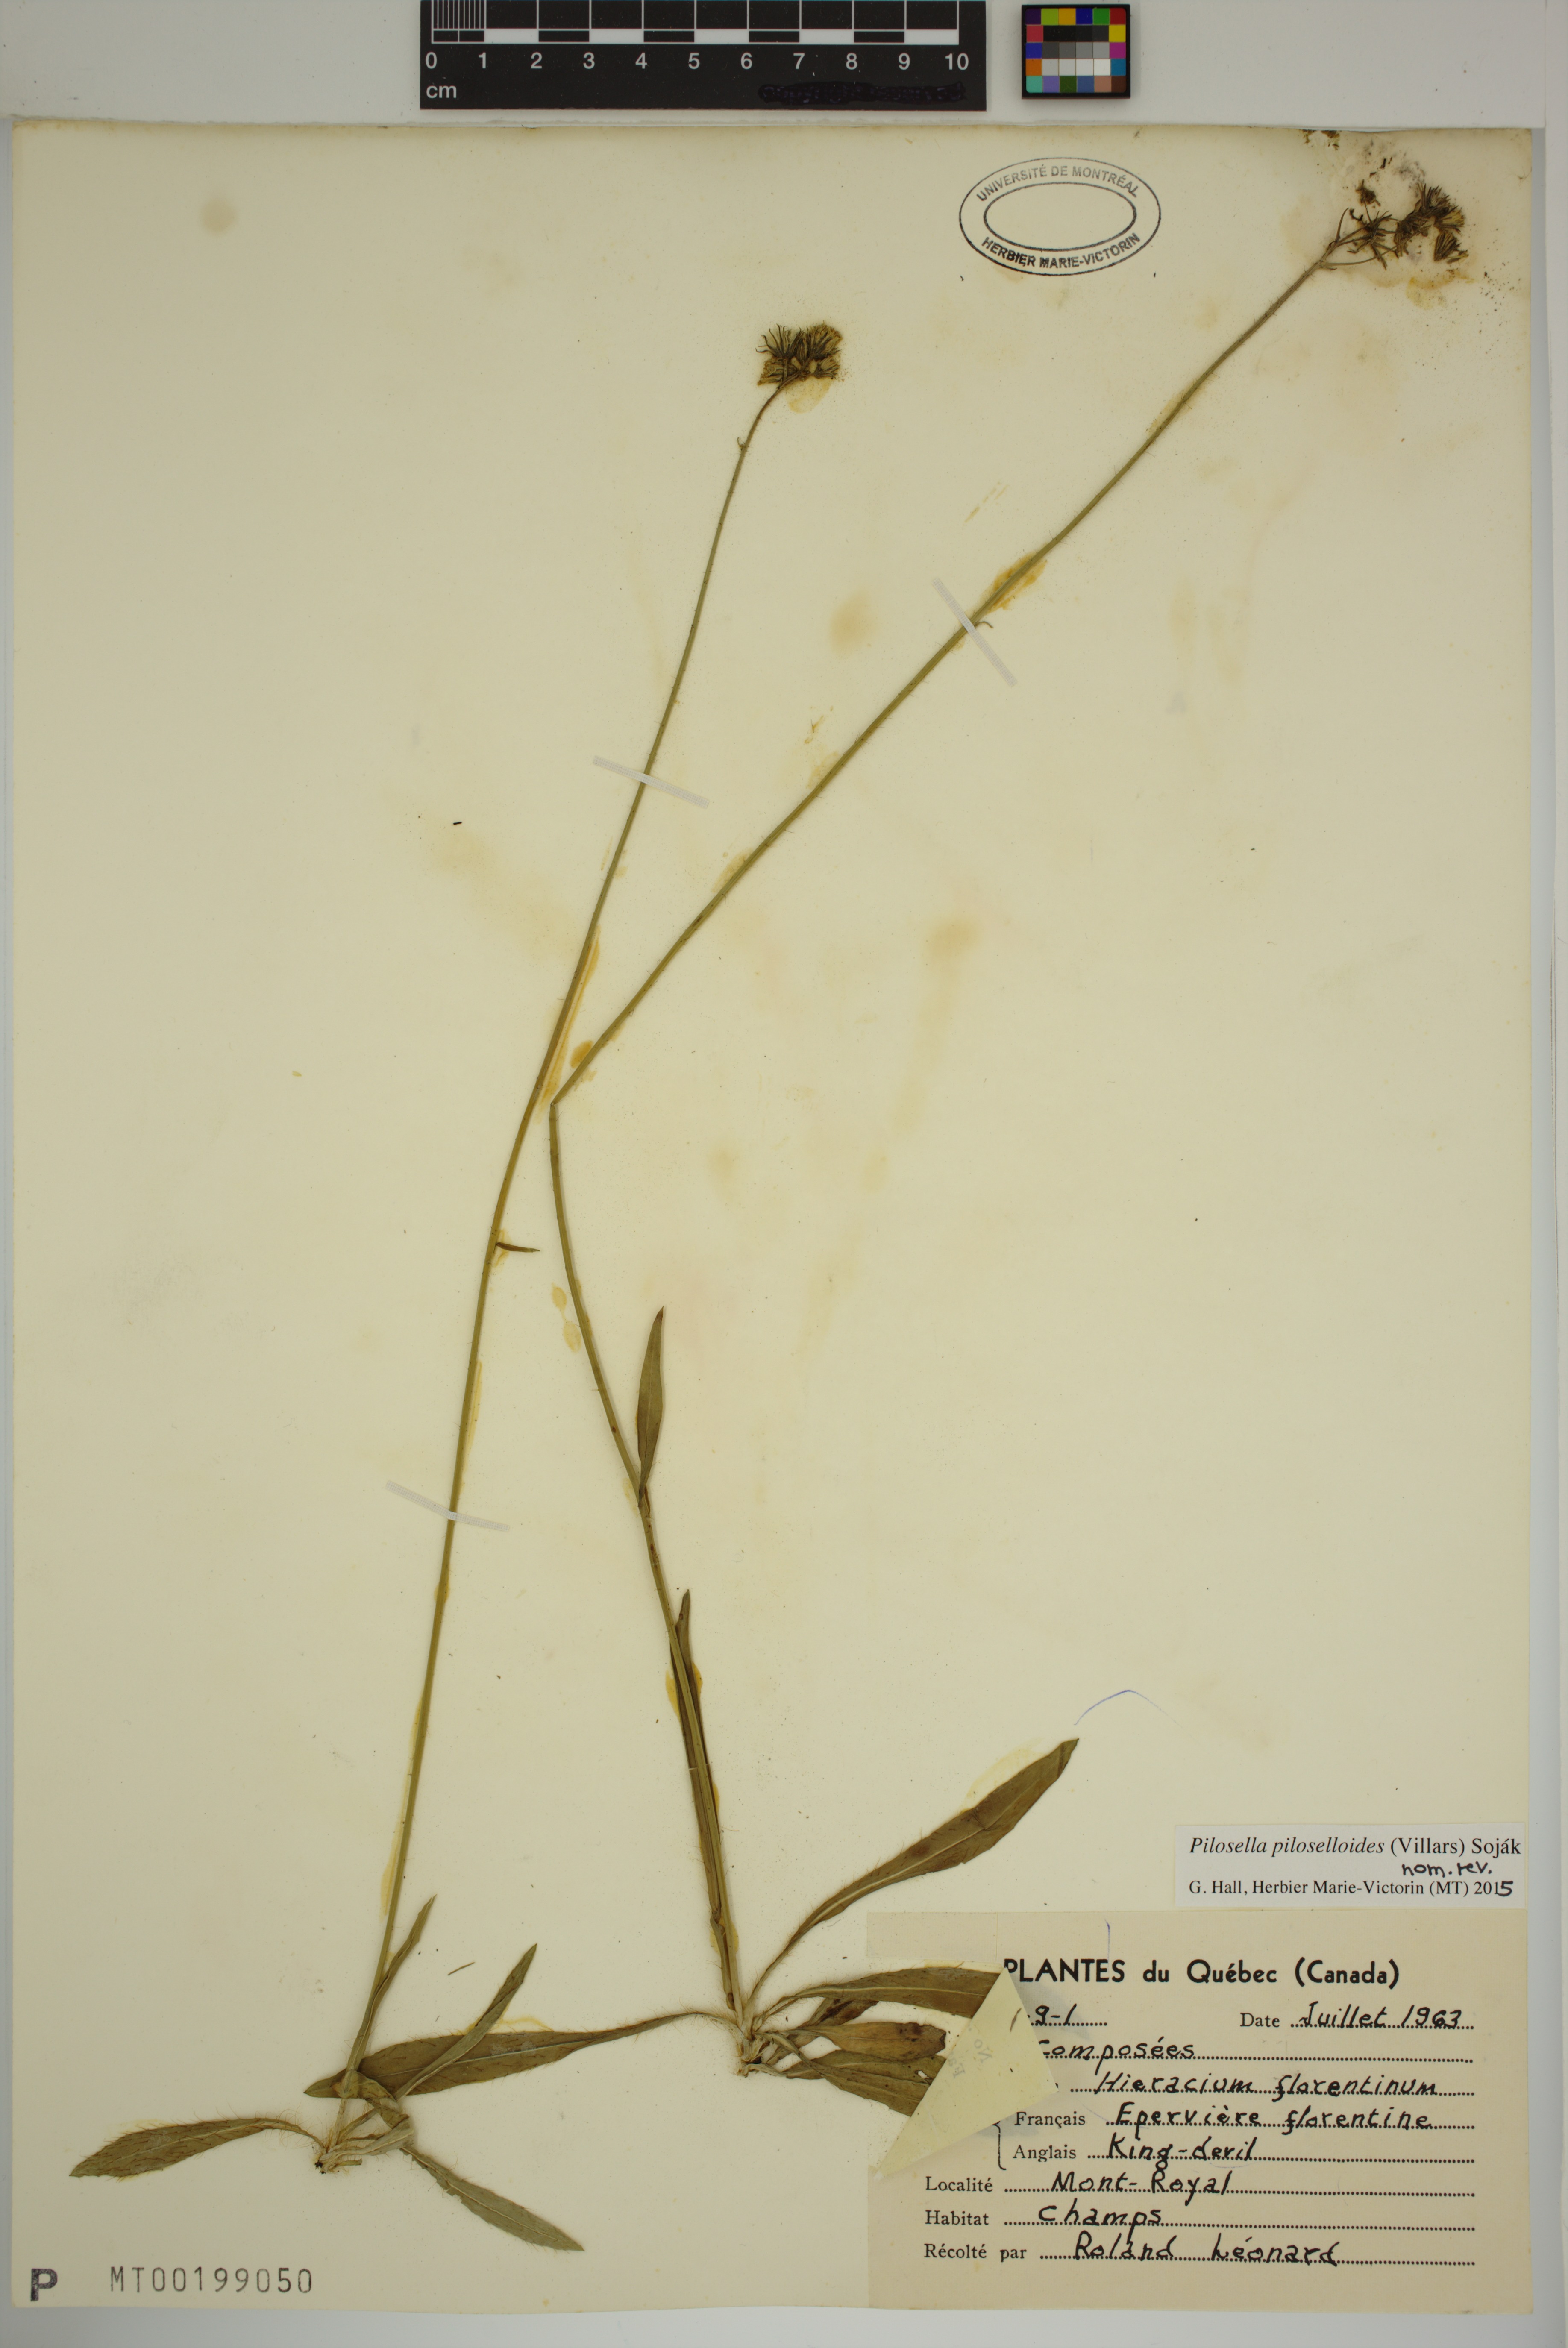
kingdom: Plantae
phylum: Tracheophyta
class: Magnoliopsida
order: Asterales
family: Asteraceae
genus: Pilosella
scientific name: Pilosella piloselloides
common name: Glaucous king-devil
